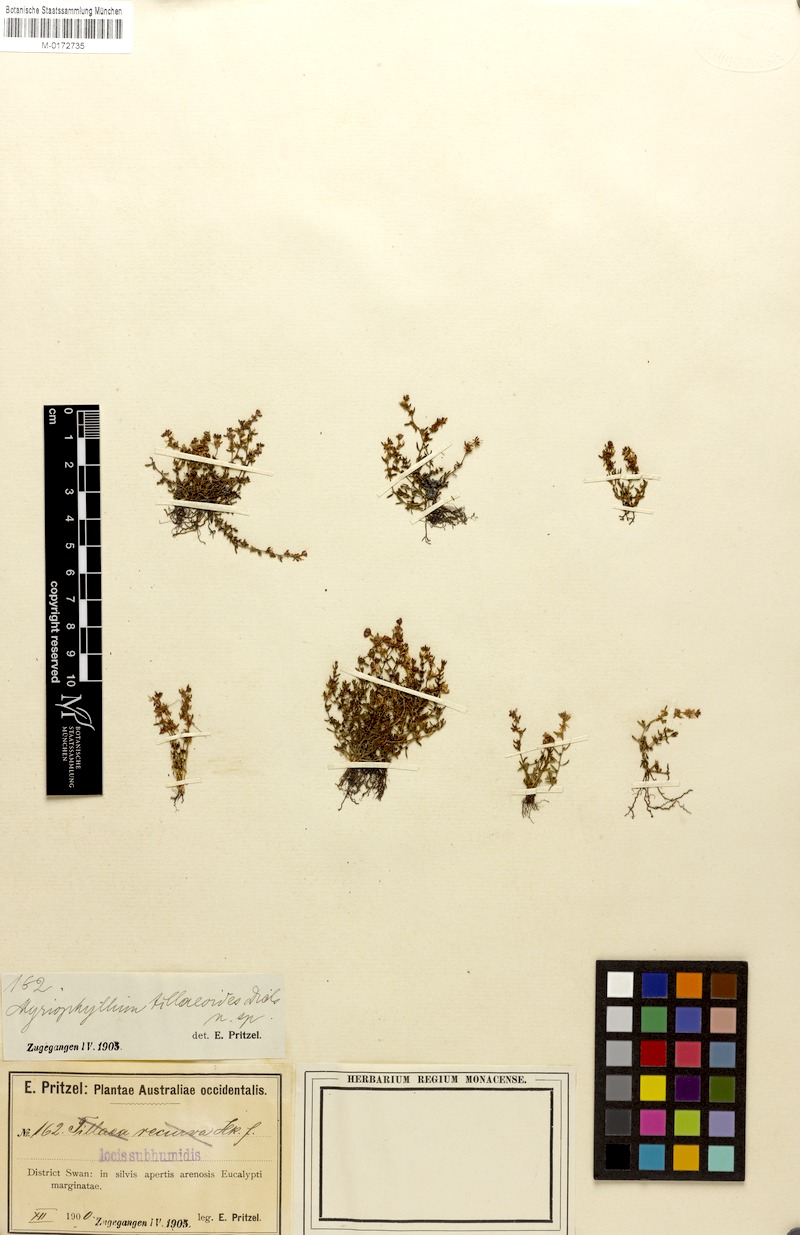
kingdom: Plantae
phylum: Tracheophyta
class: Magnoliopsida
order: Saxifragales
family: Haloragaceae
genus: Myriophyllum
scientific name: Myriophyllum tillaeoides
